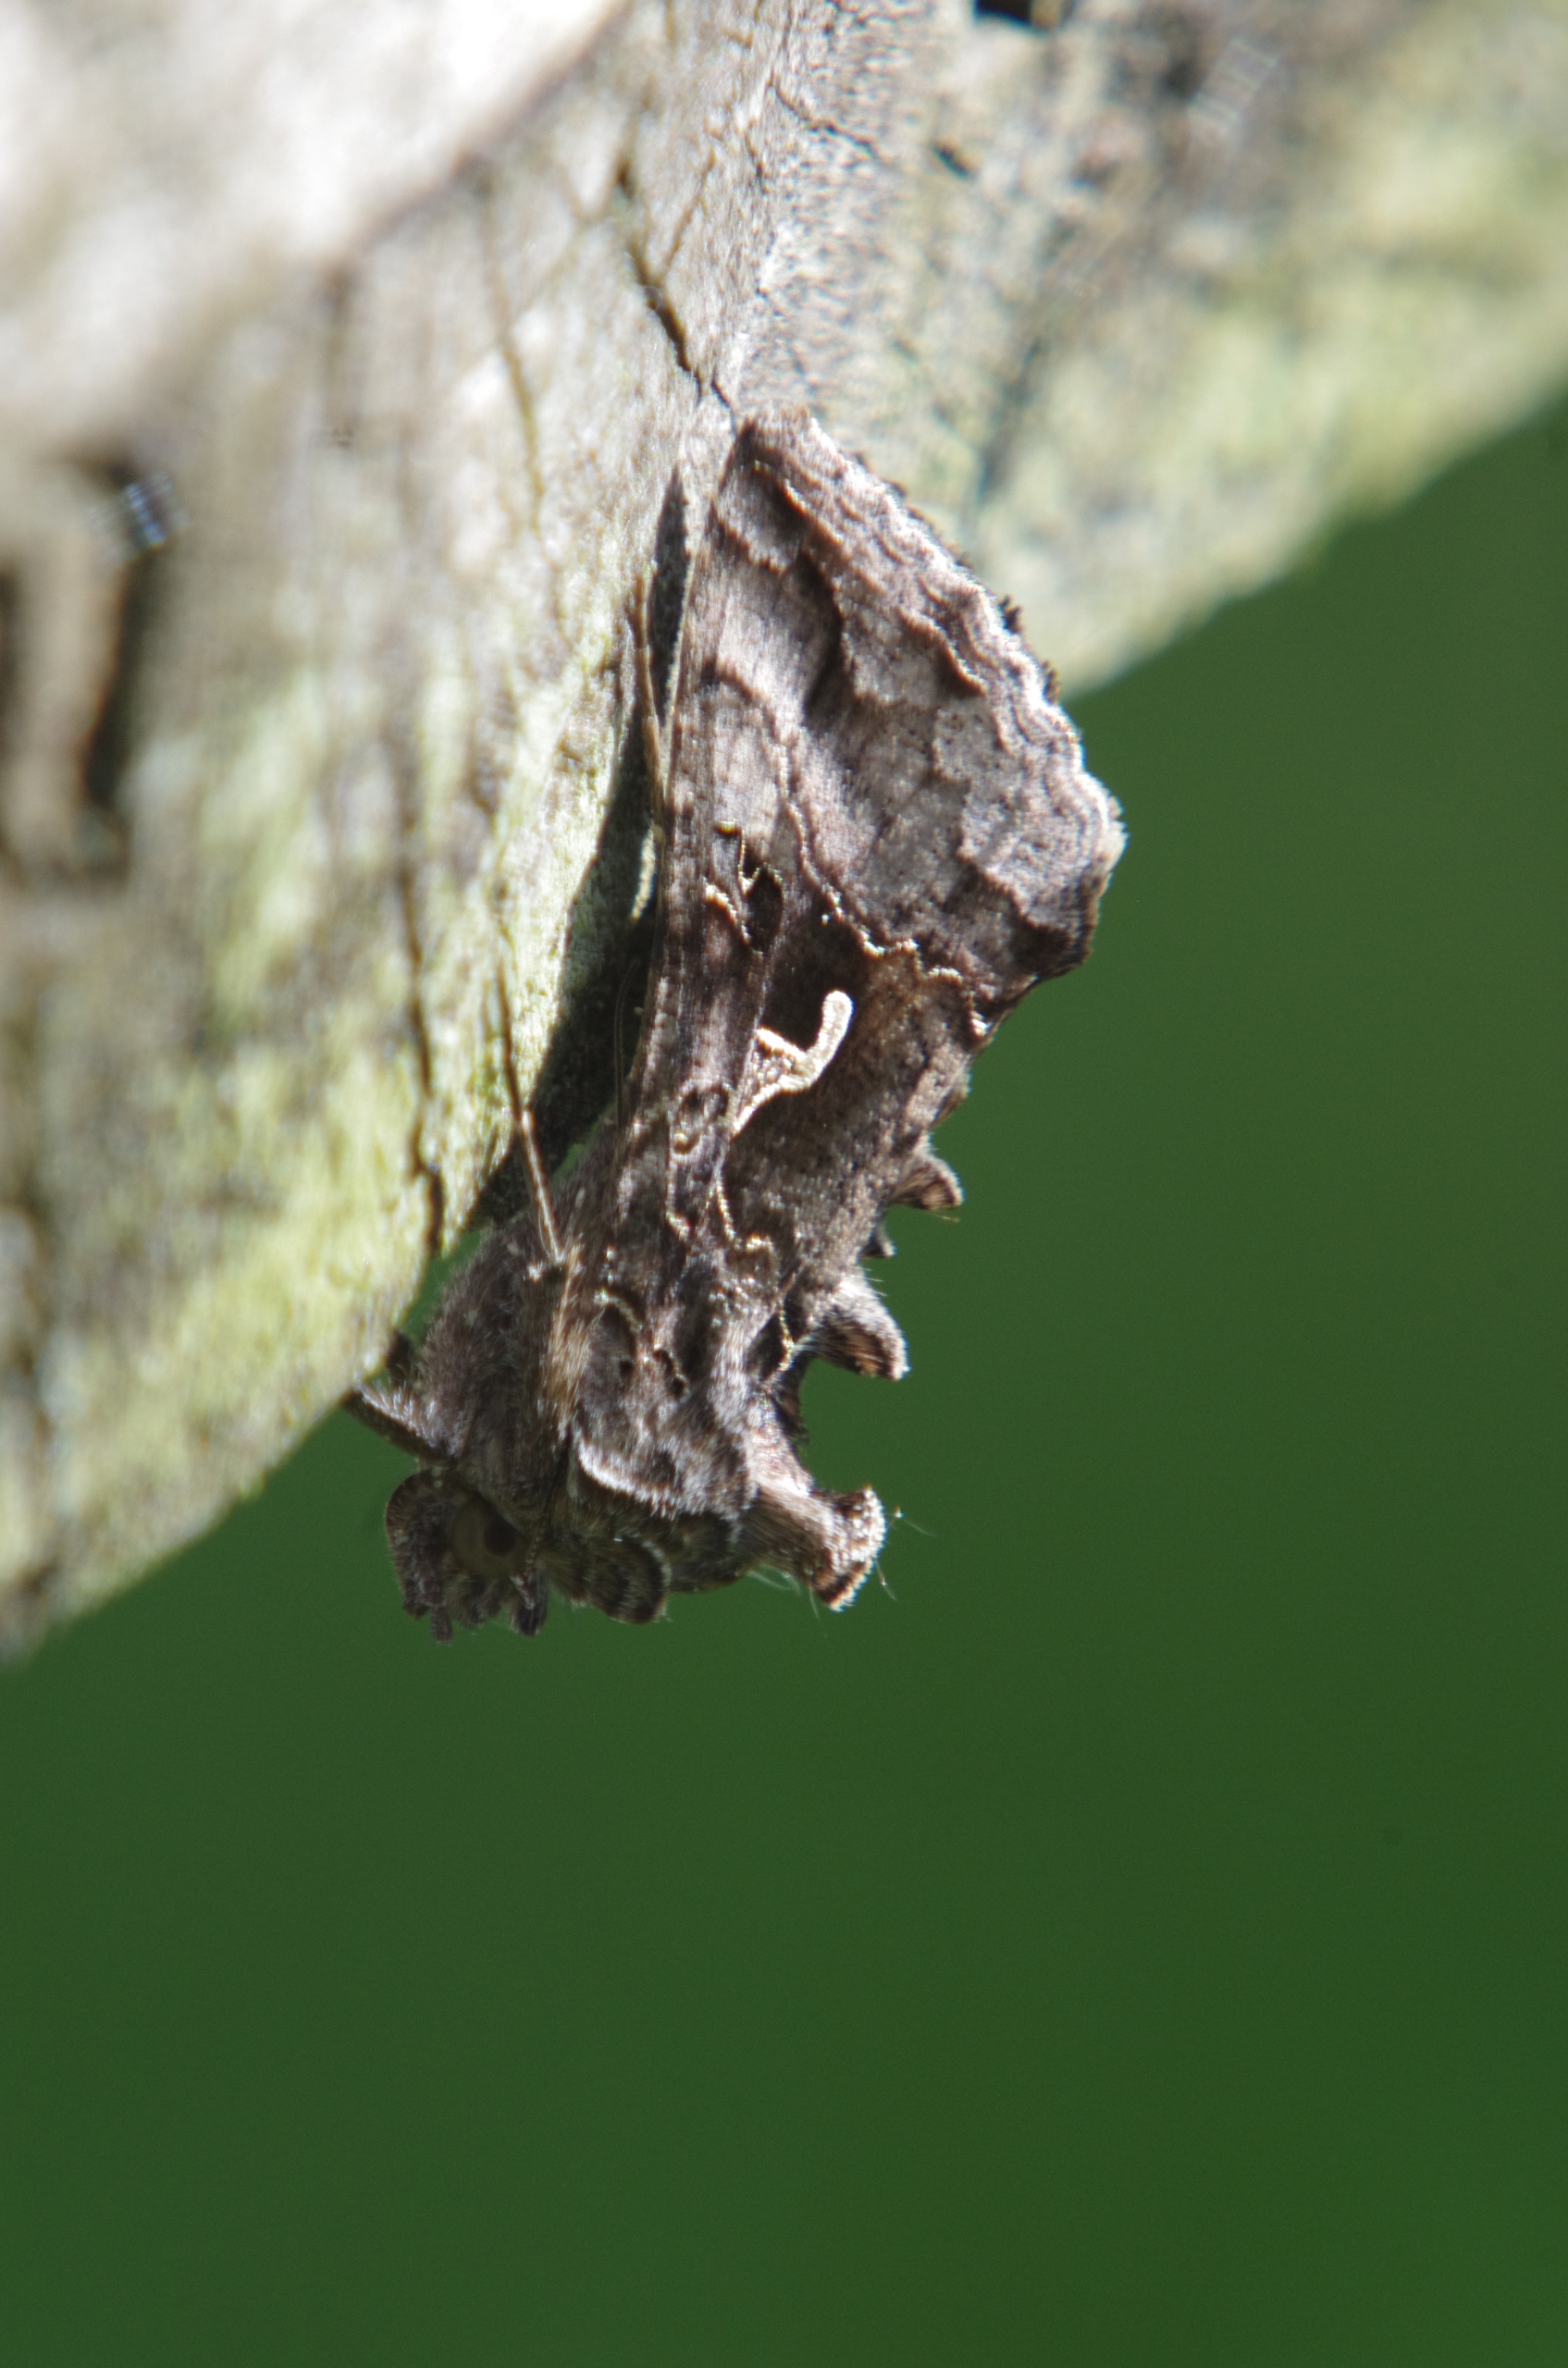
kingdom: Animalia
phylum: Arthropoda
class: Insecta
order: Lepidoptera
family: Noctuidae
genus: Autographa
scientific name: Autographa gamma
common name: Gammaugle
